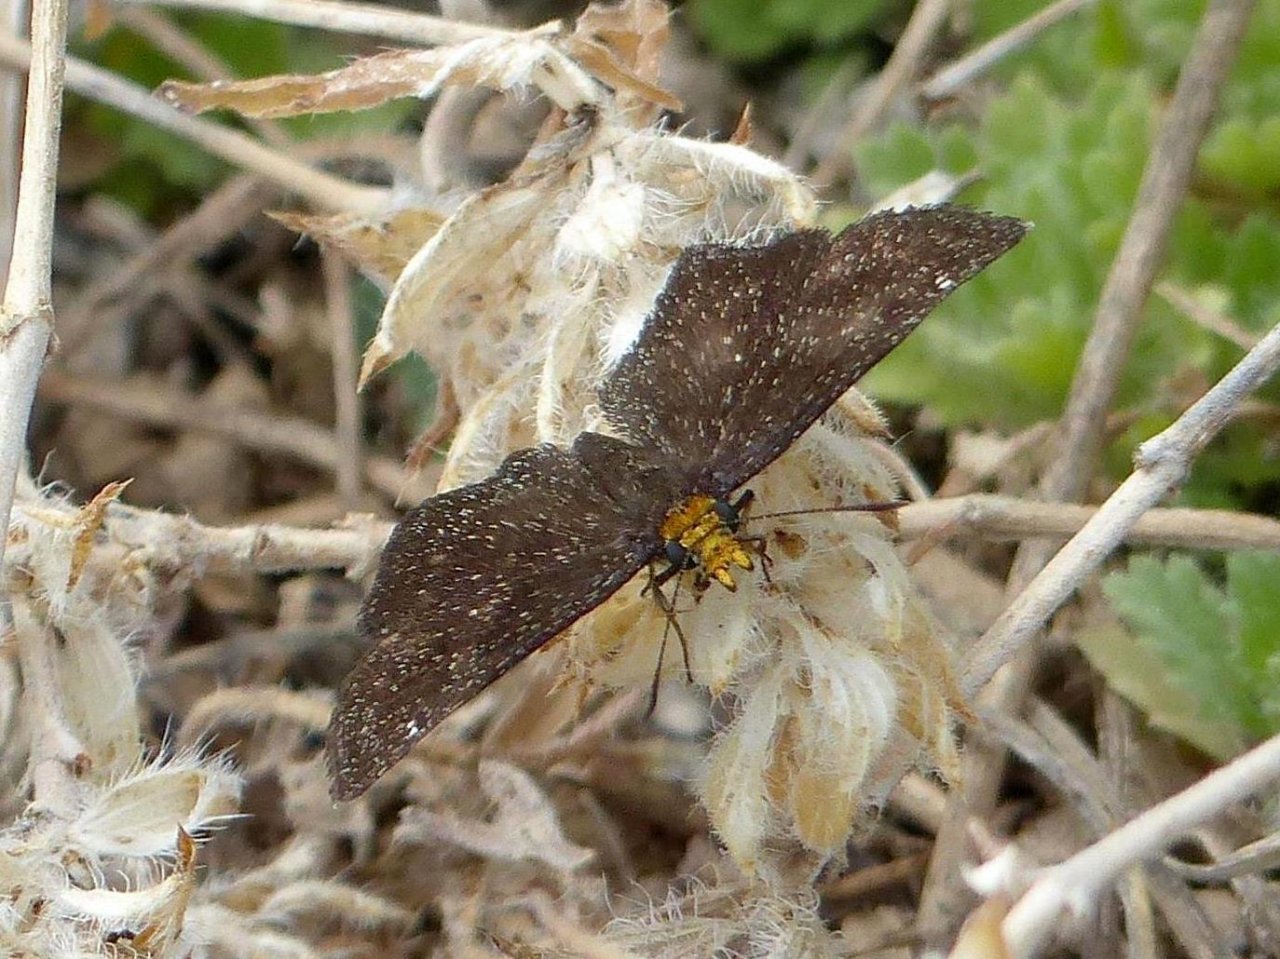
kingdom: Animalia
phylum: Arthropoda
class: Insecta
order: Lepidoptera
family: Hesperiidae
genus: Staphylus
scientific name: Staphylus ceos
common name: Golden-headed Scallopwing
